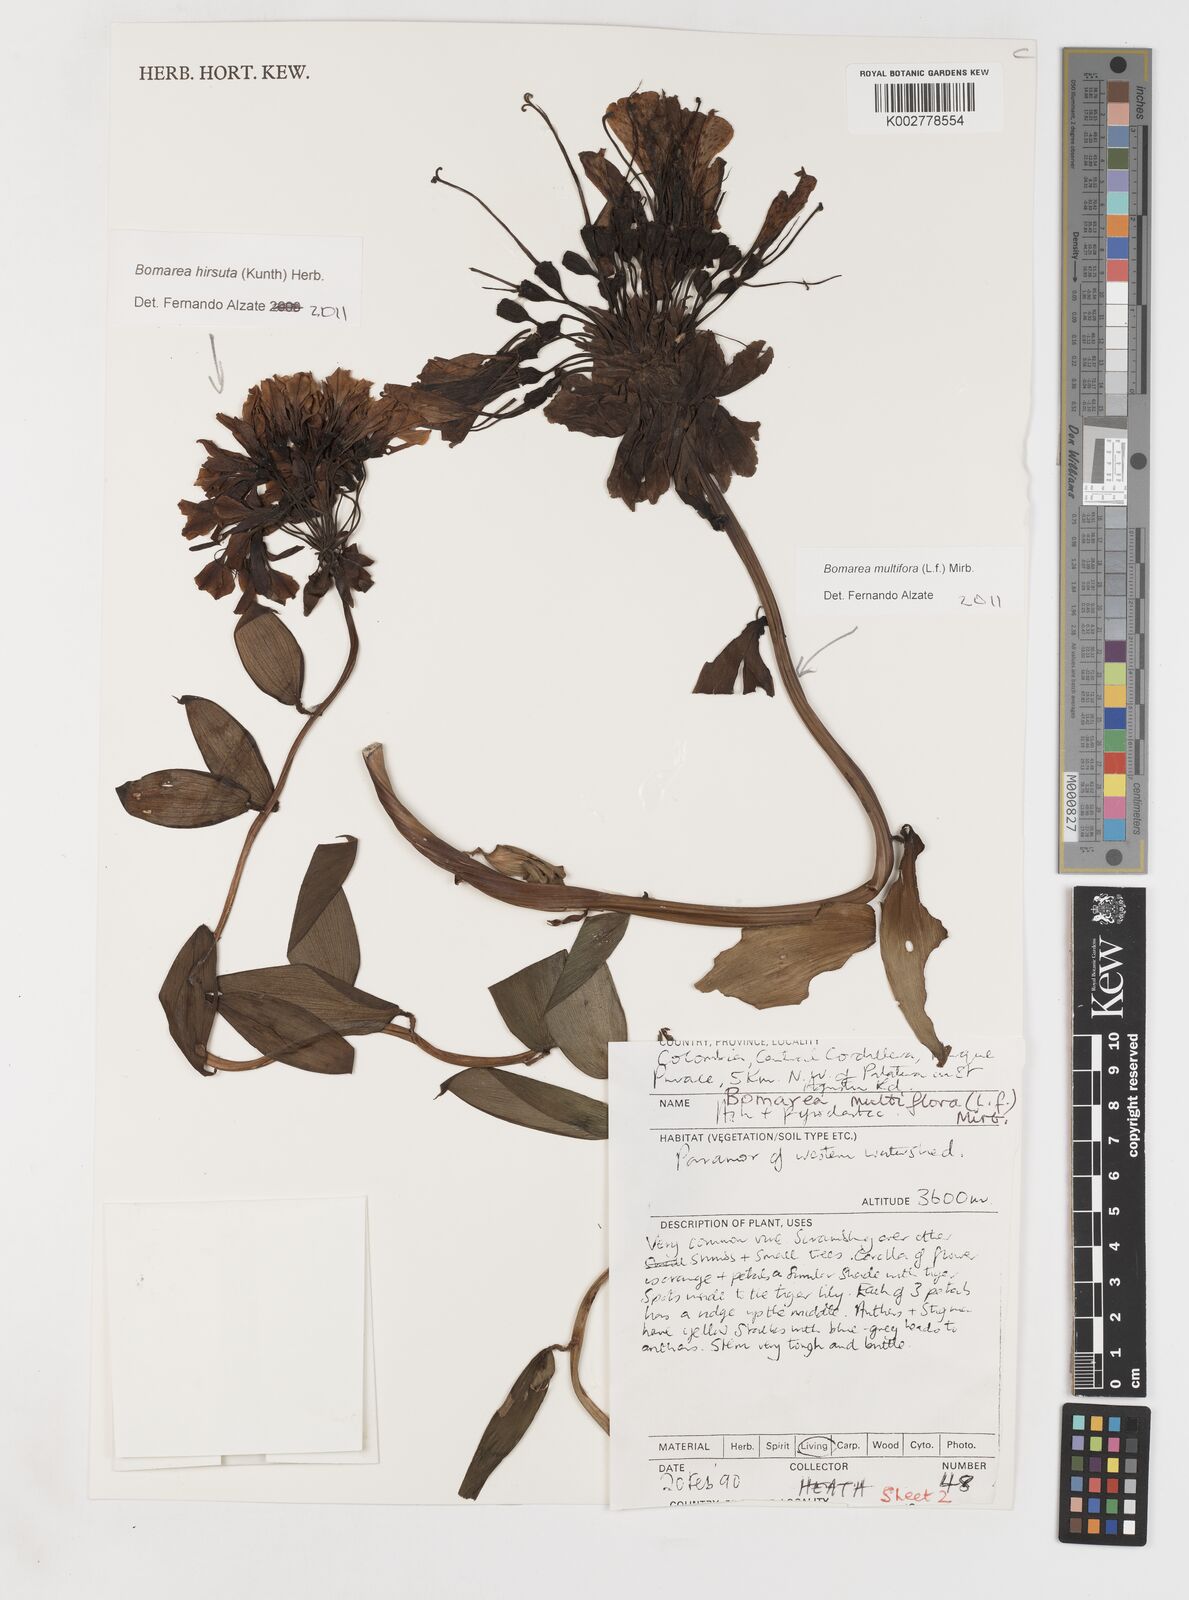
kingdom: Plantae
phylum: Tracheophyta
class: Liliopsida
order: Liliales
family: Alstroemeriaceae
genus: Bomarea
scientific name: Bomarea multiflora
